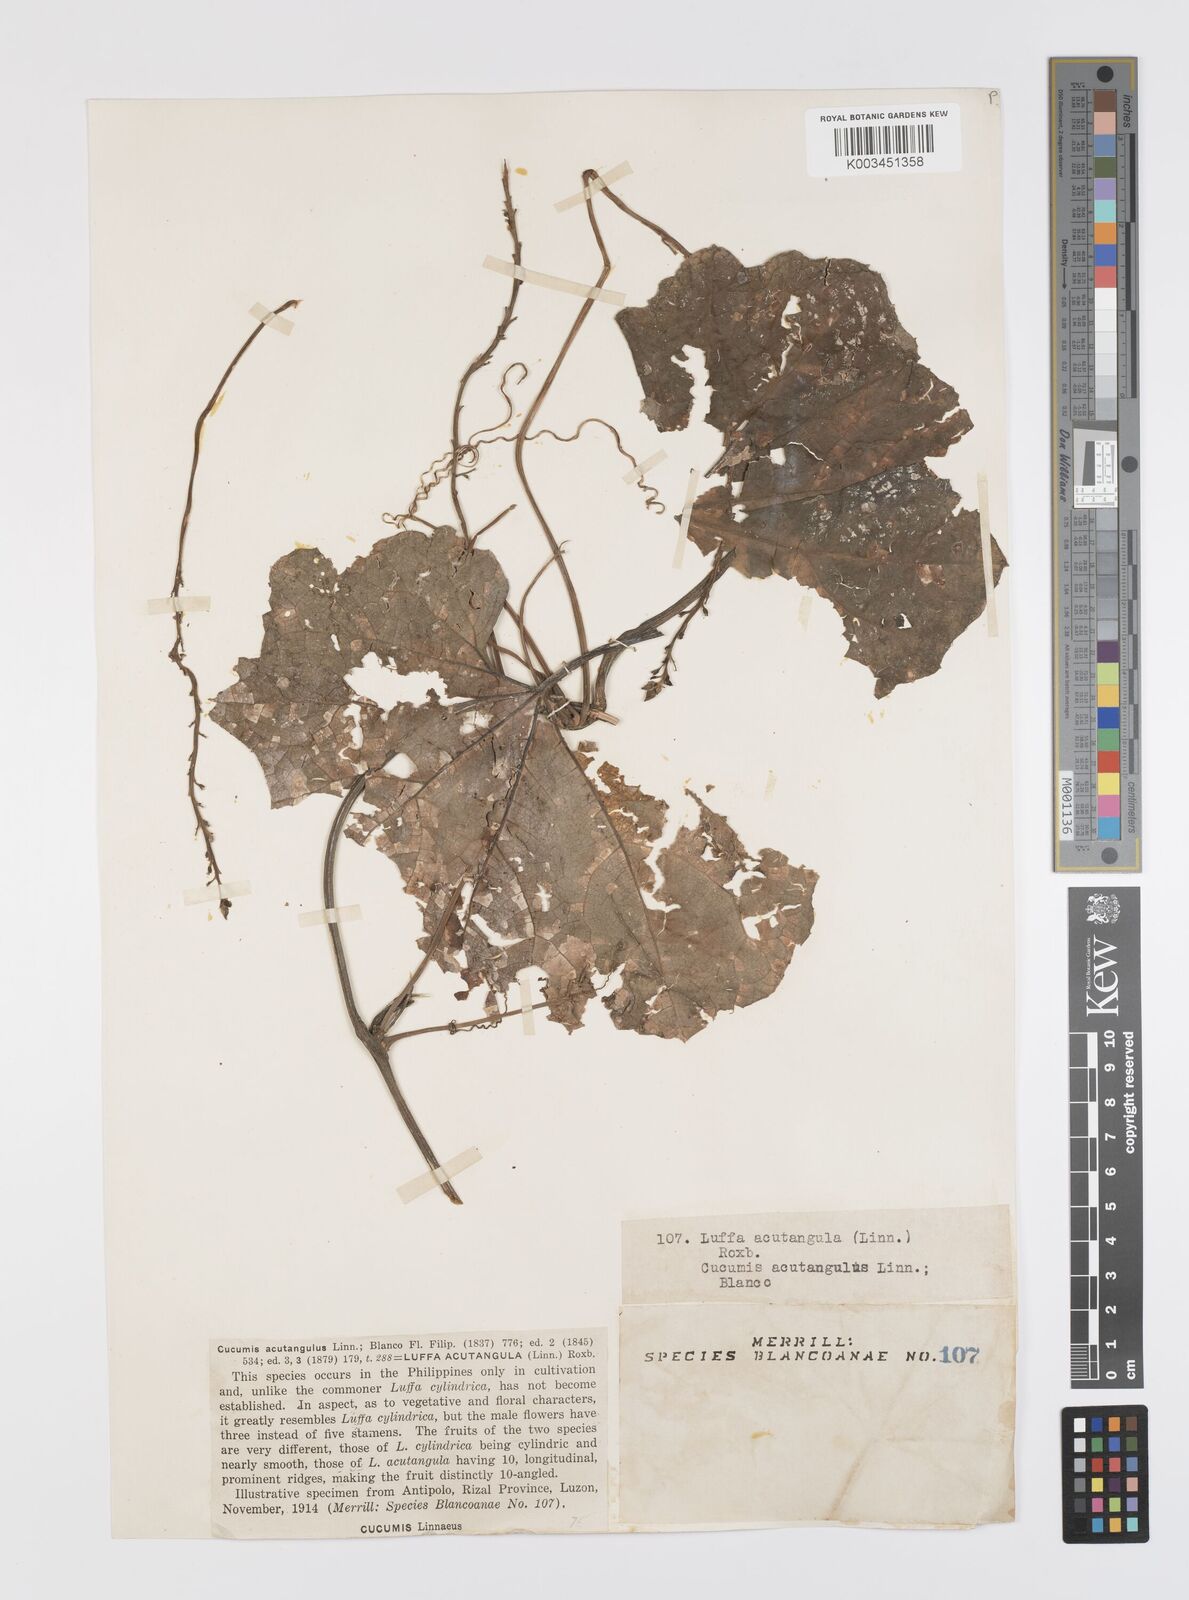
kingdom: Plantae
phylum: Tracheophyta
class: Magnoliopsida
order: Cucurbitales
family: Cucurbitaceae
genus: Luffa
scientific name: Luffa acutangula
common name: Sinkwa towelsponge
